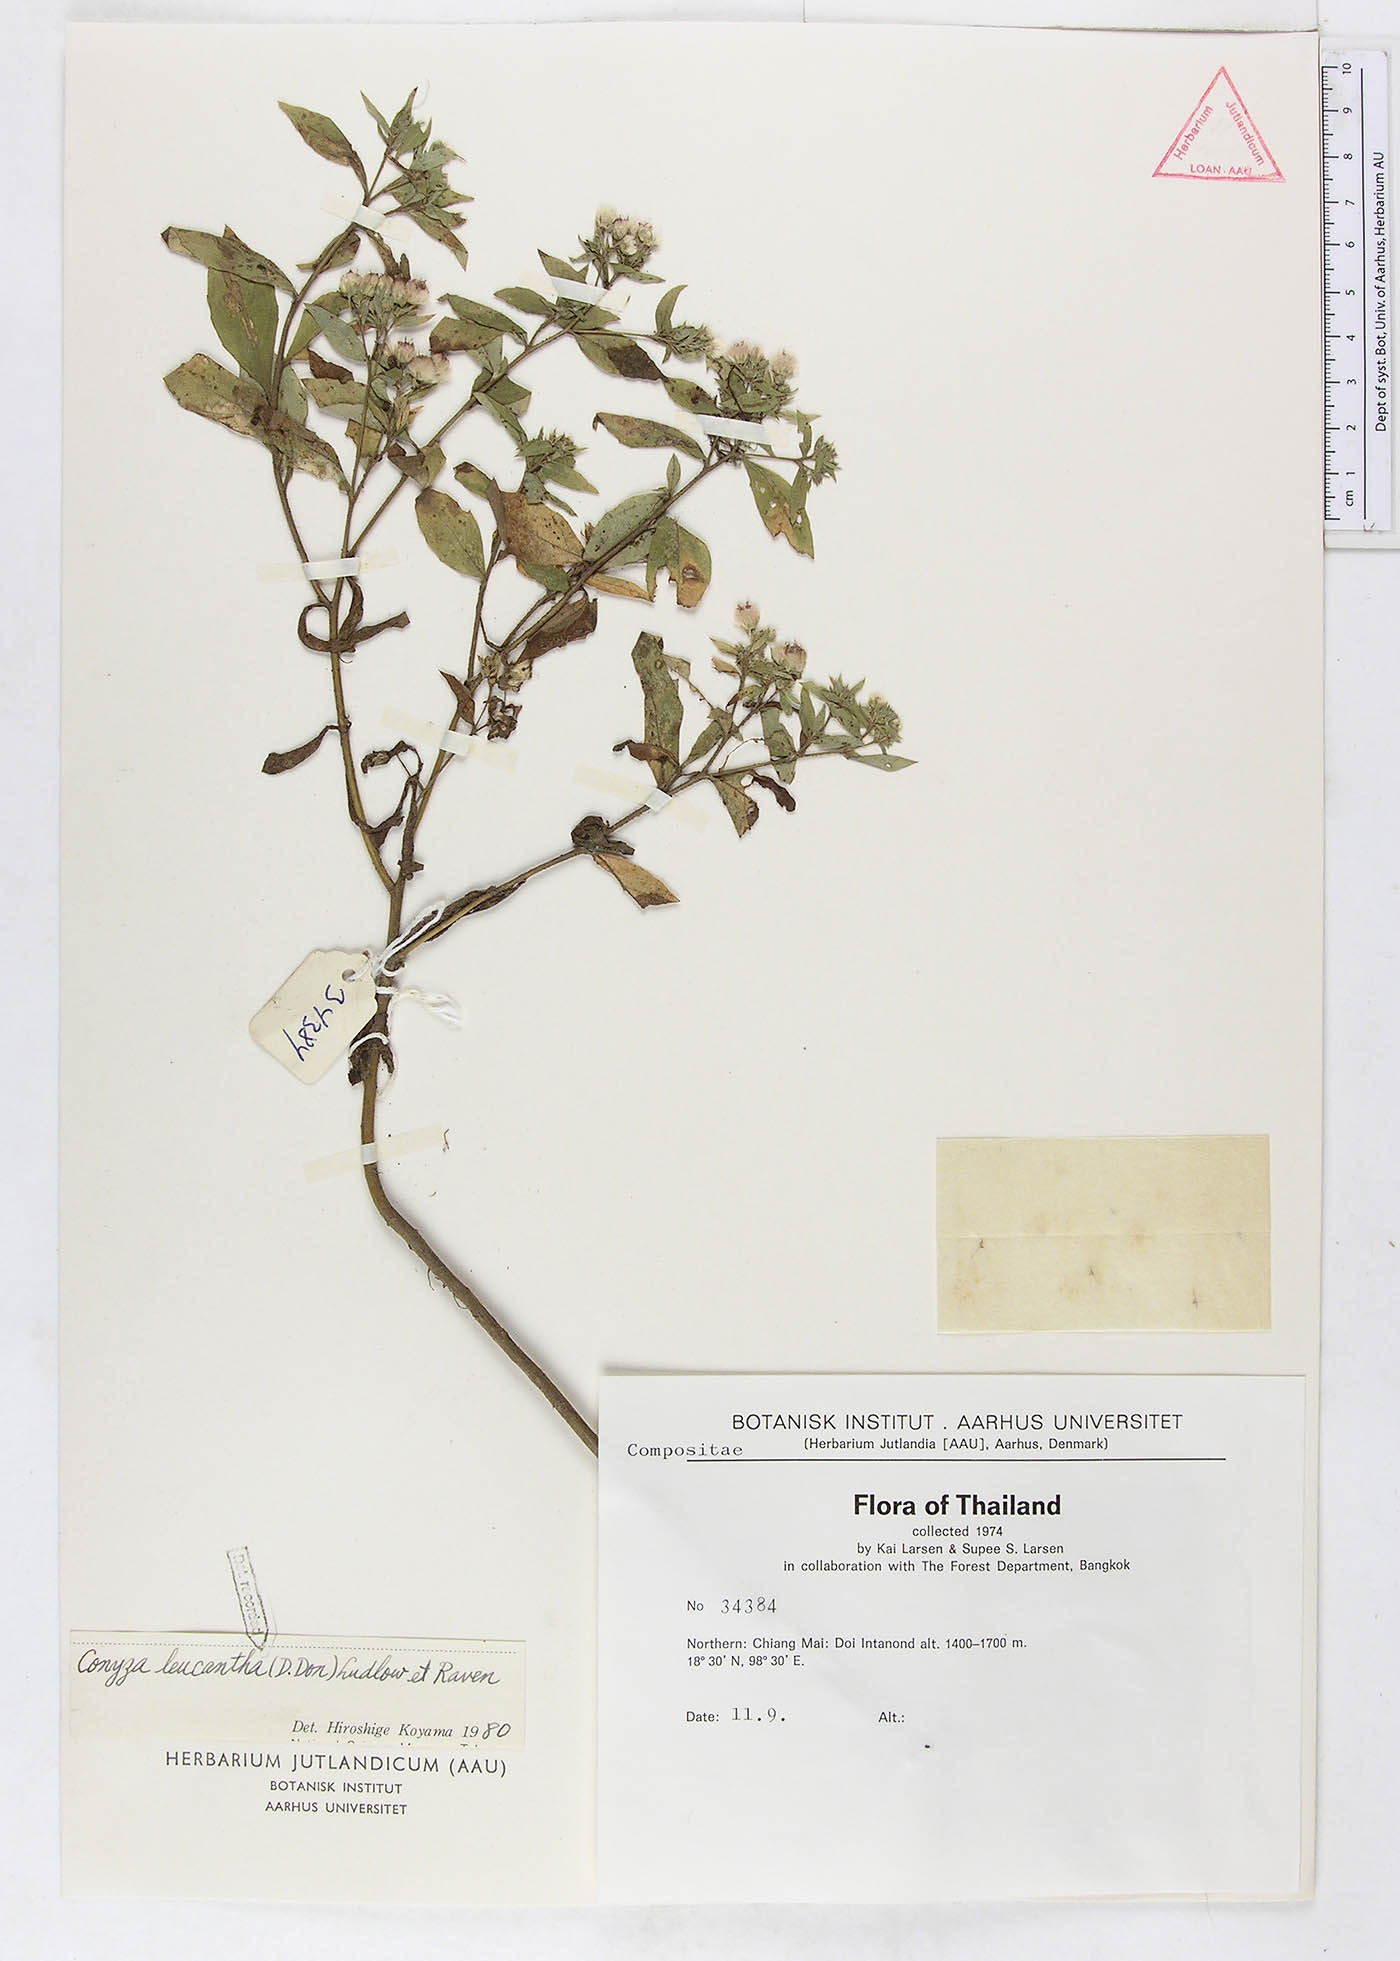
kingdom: Plantae
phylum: Tracheophyta
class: Magnoliopsida
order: Asterales
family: Asteraceae
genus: Eschenbachia
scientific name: Eschenbachia leucantha
